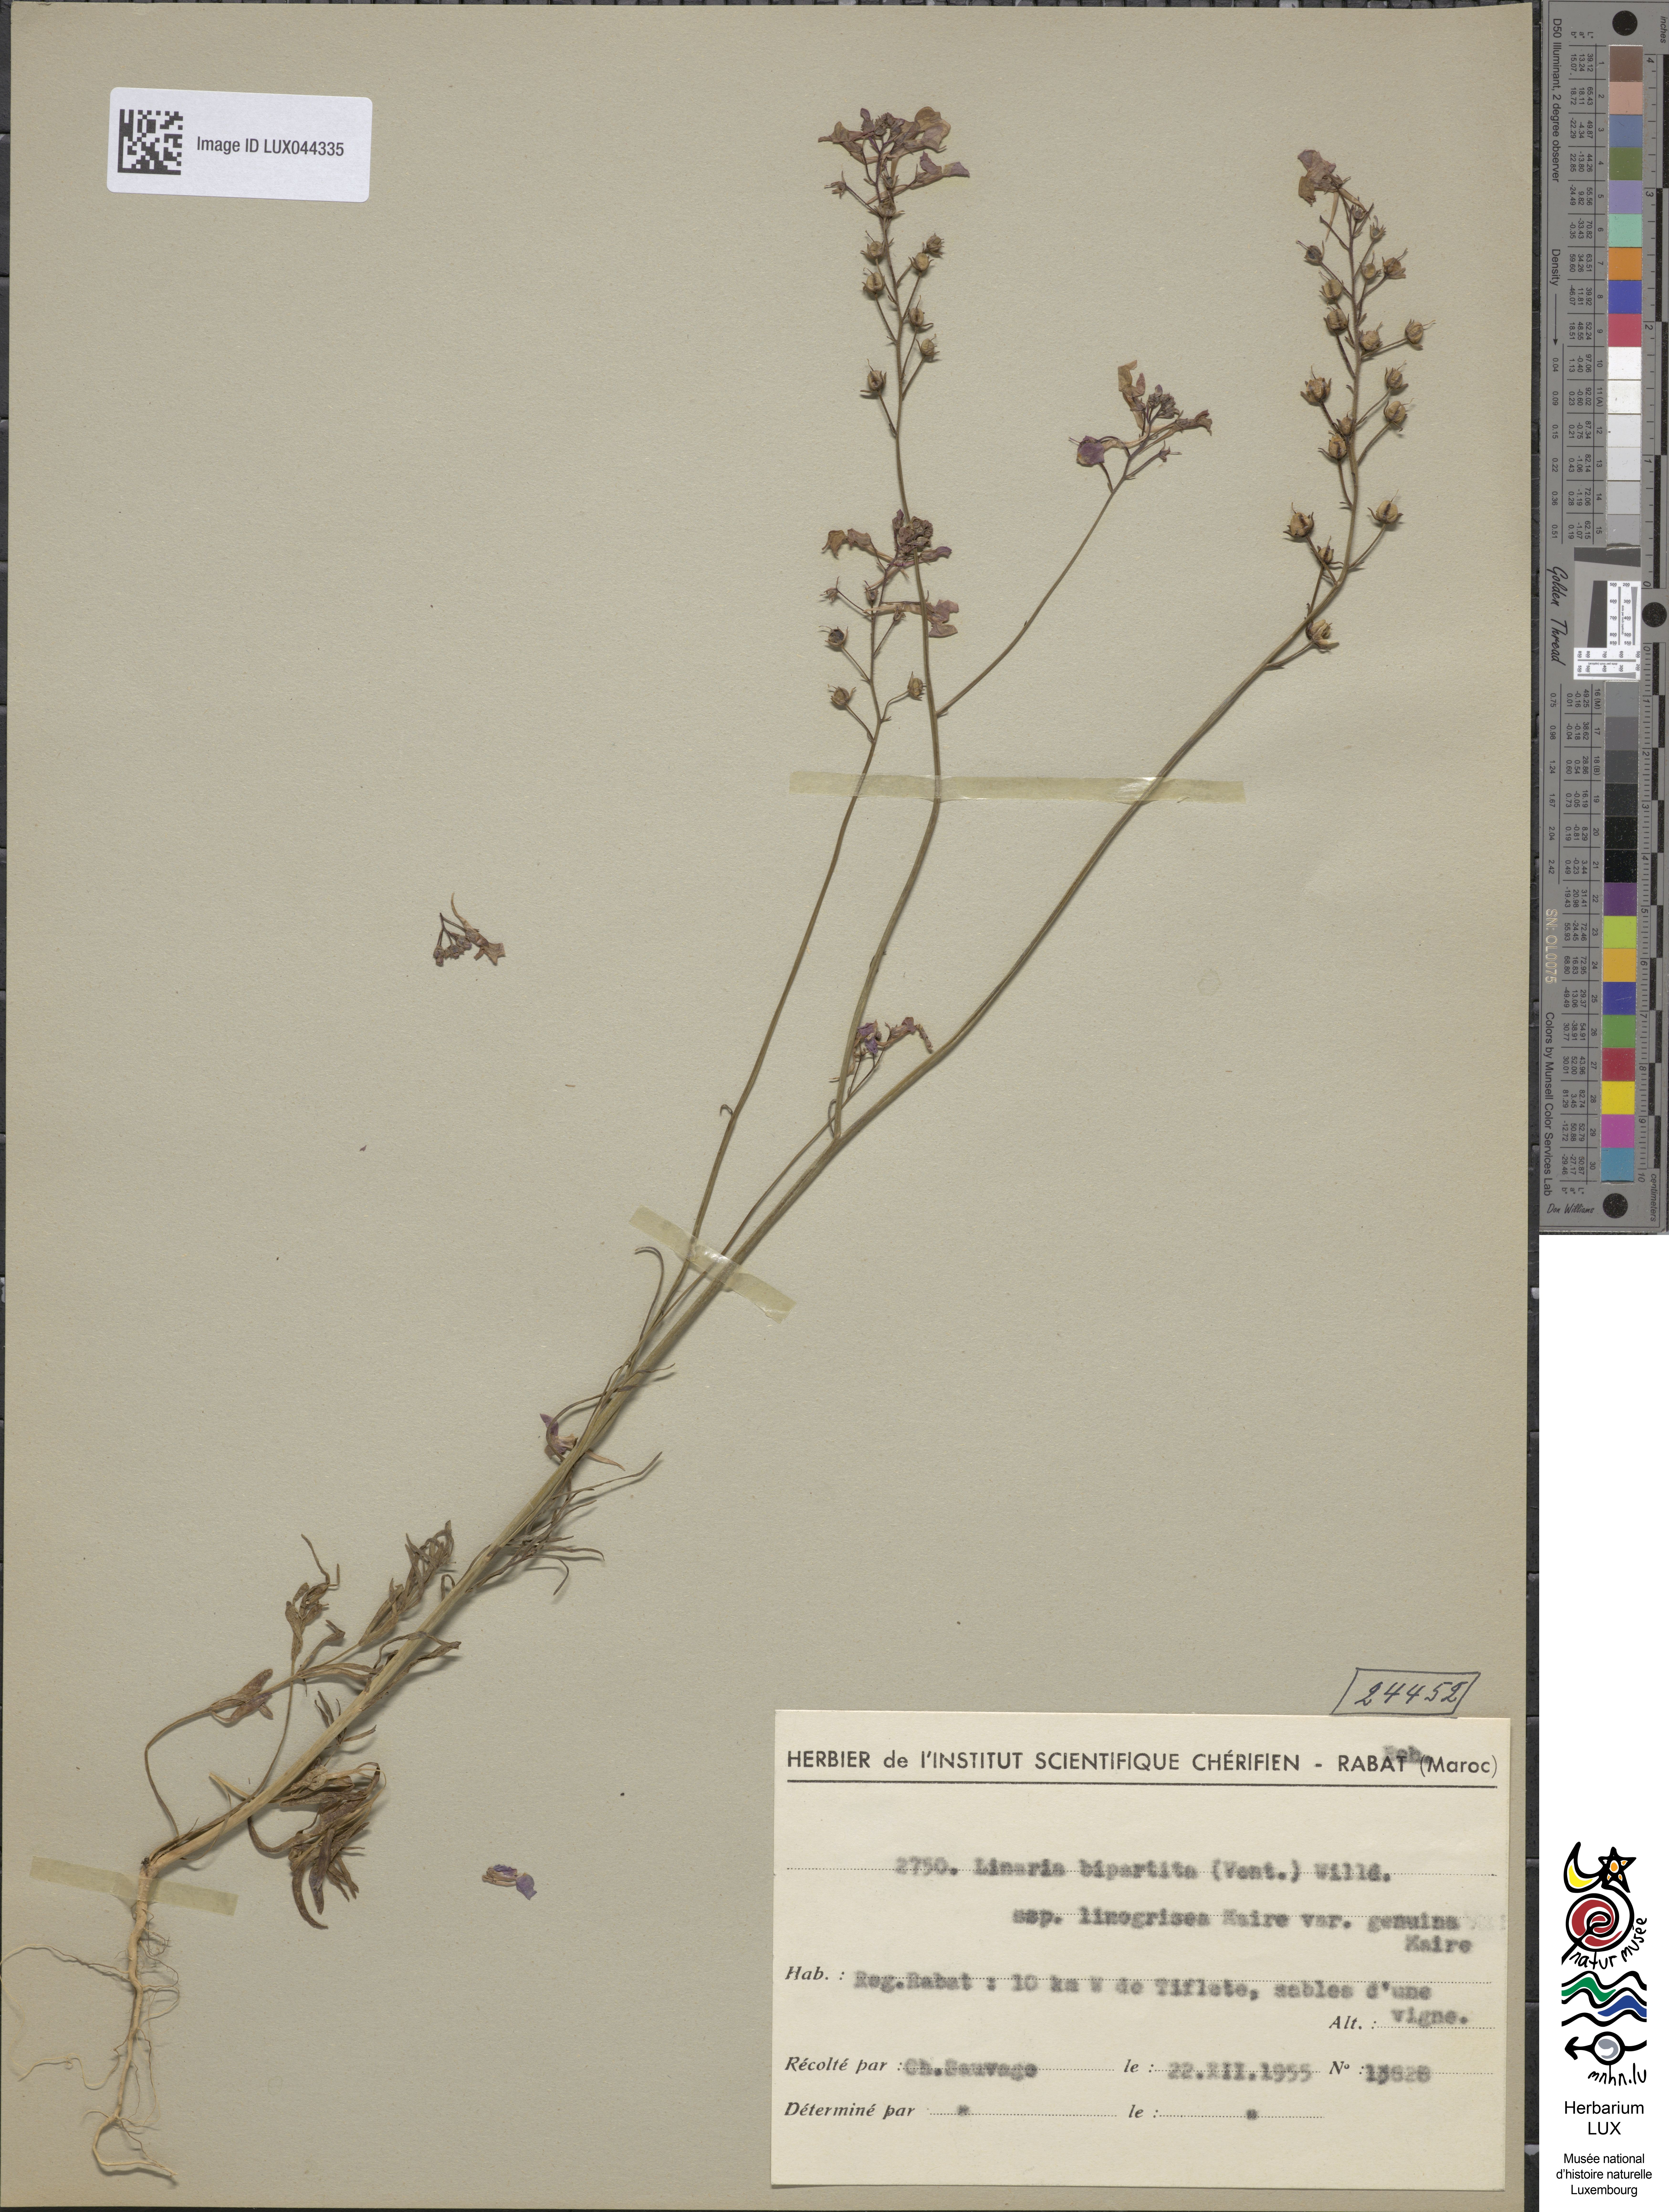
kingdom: Plantae
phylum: Tracheophyta
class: Magnoliopsida
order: Lamiales
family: Plantaginaceae
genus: Linaria
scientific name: Linaria bipartita
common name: Clovenlip toadflax
